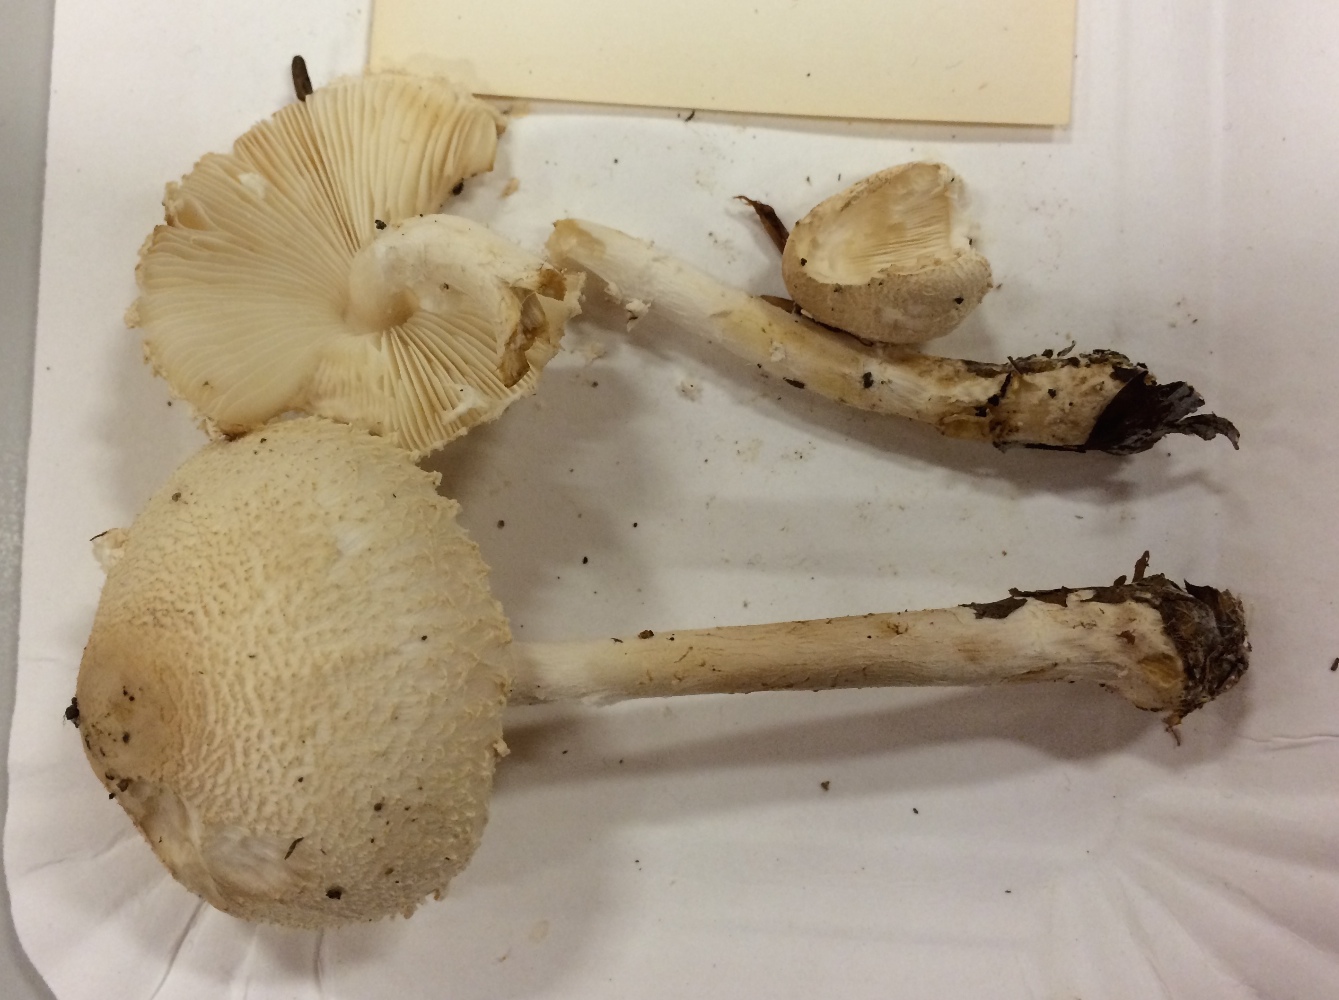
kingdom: Fungi
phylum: Basidiomycota
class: Agaricomycetes
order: Agaricales
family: Agaricaceae
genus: Lepiota
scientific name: Lepiota clypeolaria
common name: flosset parasolhat
